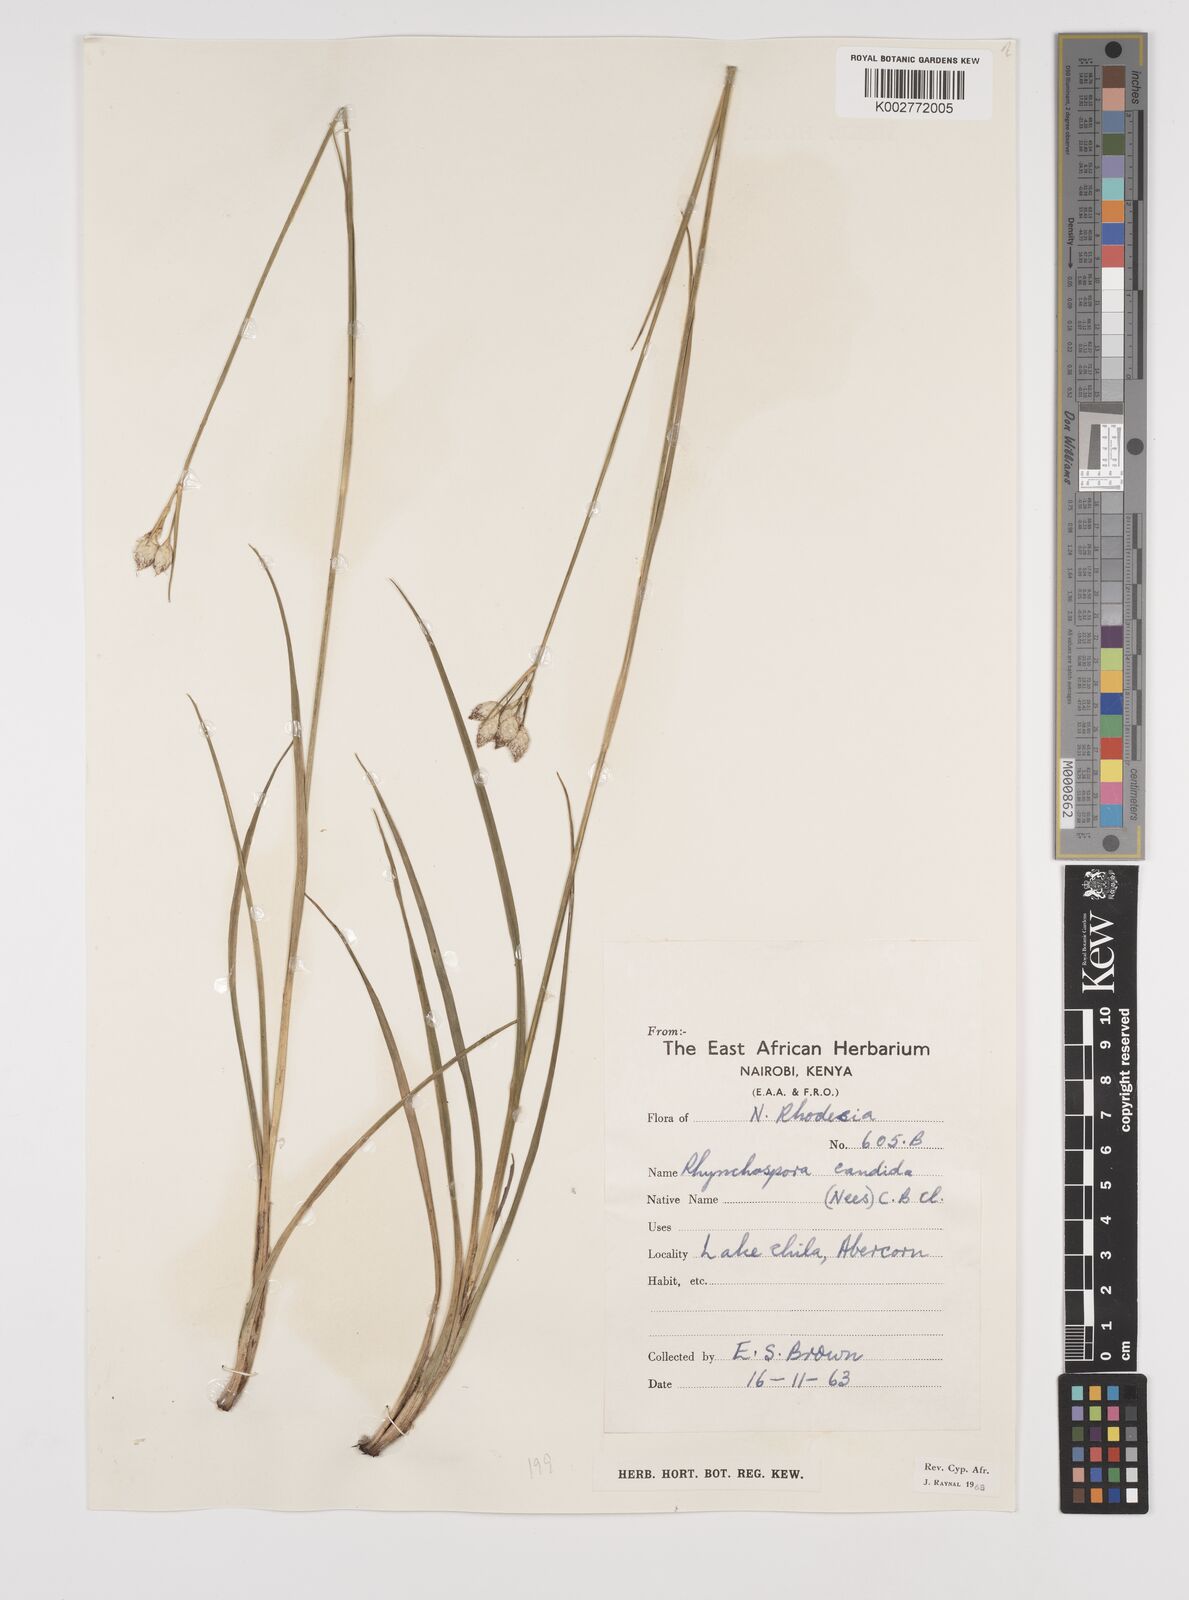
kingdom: Plantae
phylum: Tracheophyta
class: Liliopsida
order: Poales
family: Cyperaceae
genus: Rhynchospora
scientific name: Rhynchospora candida
